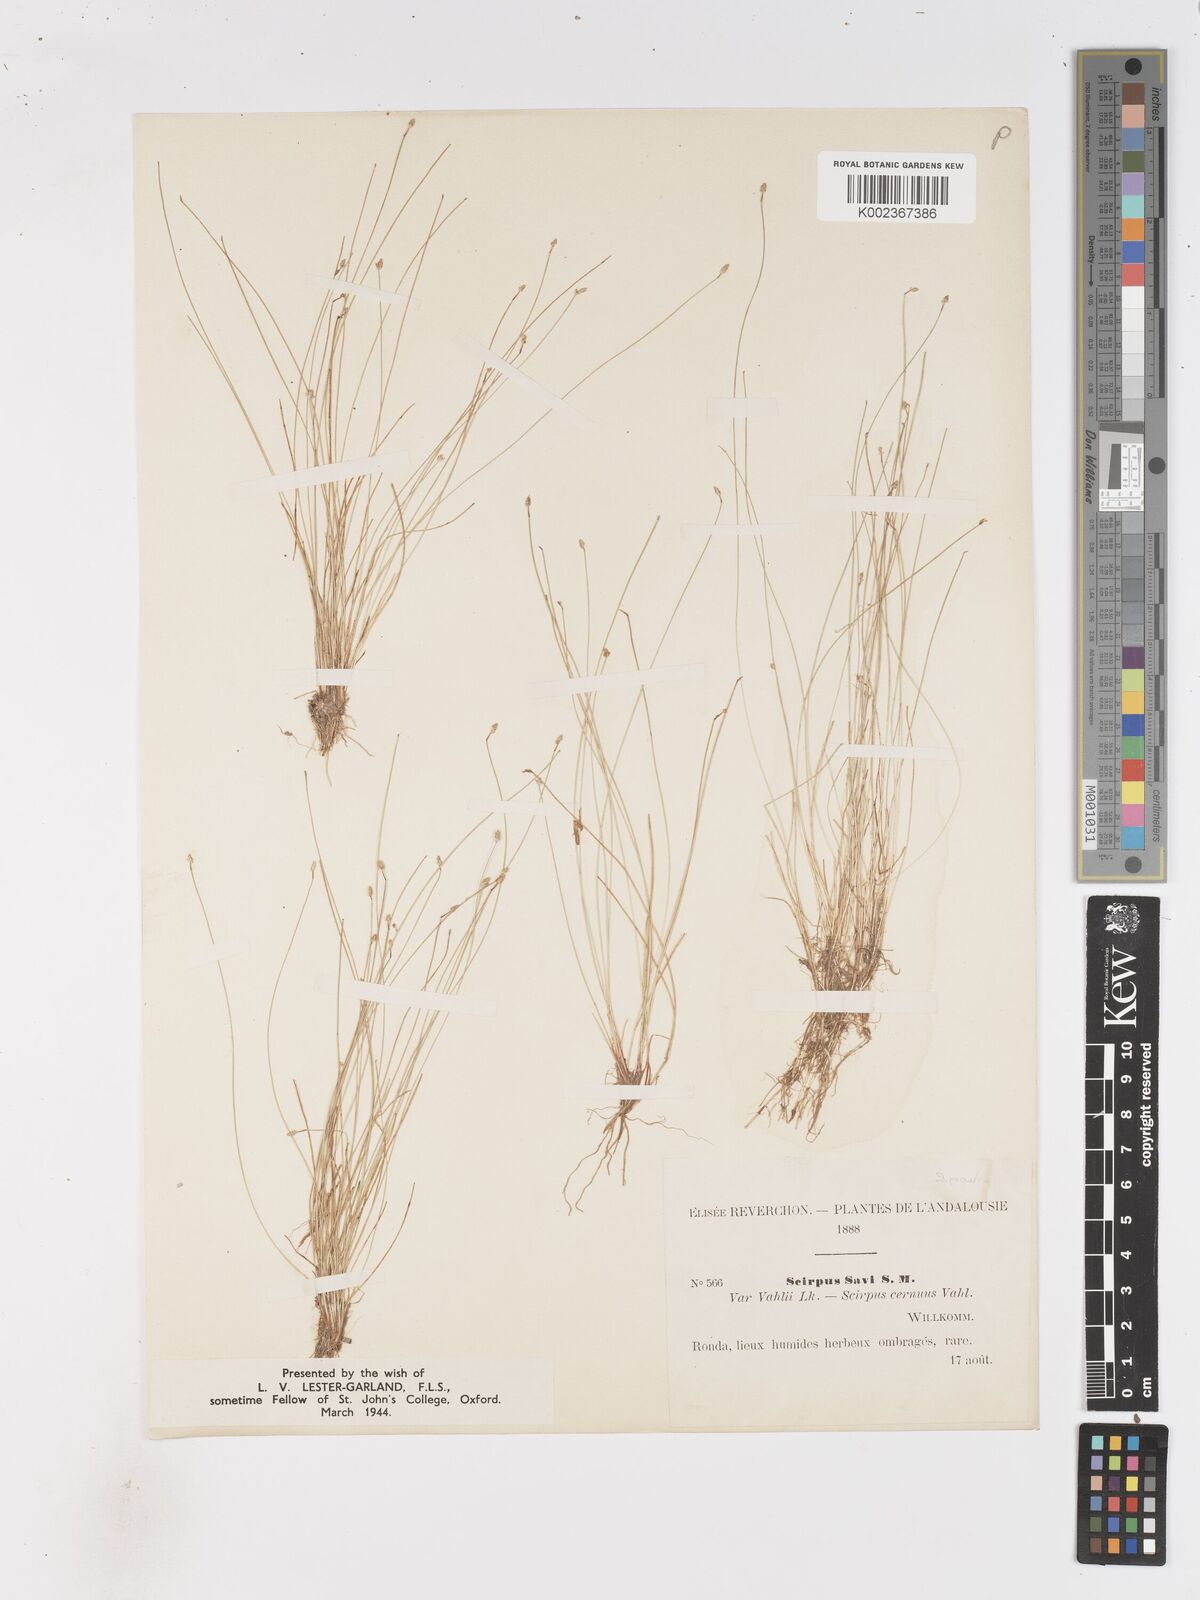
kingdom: Plantae
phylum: Tracheophyta
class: Liliopsida
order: Poales
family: Cyperaceae
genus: Isolepis
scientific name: Isolepis cernua
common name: Slender club-rush
